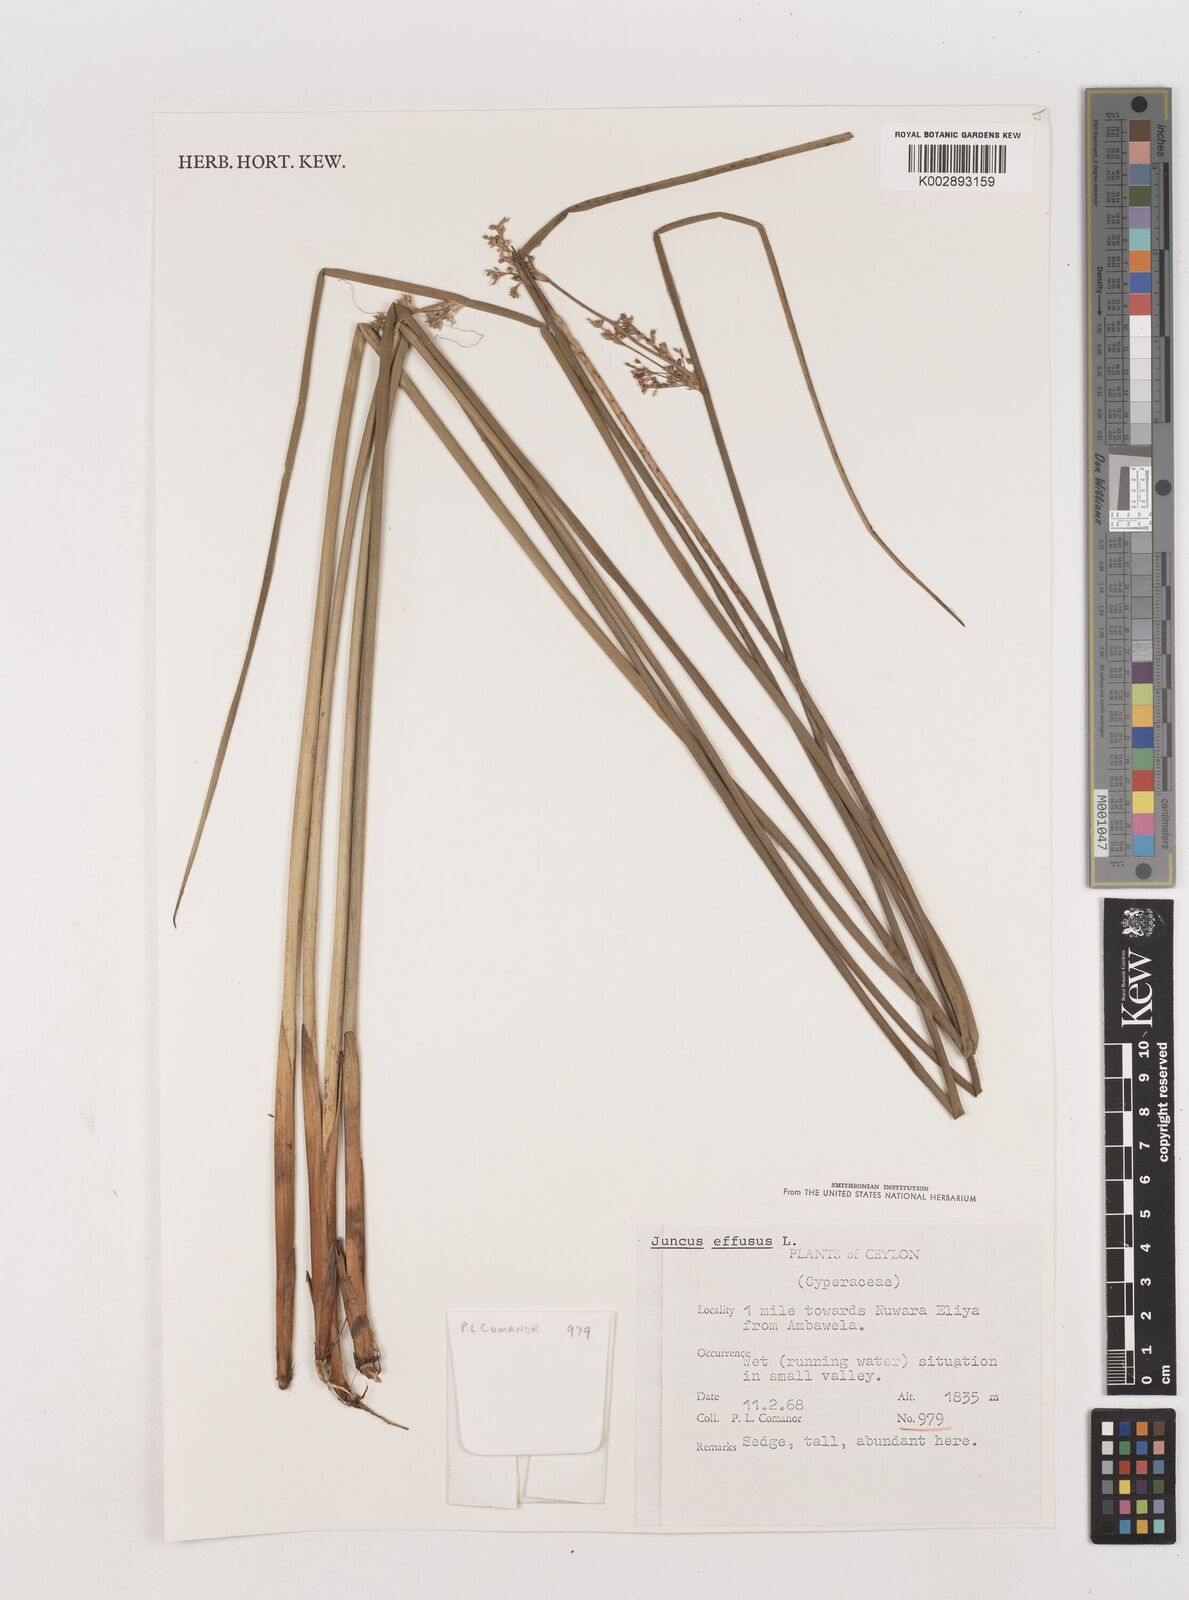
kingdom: Plantae
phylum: Tracheophyta
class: Liliopsida
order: Poales
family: Juncaceae
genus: Juncus
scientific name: Juncus effusus
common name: Soft rush
